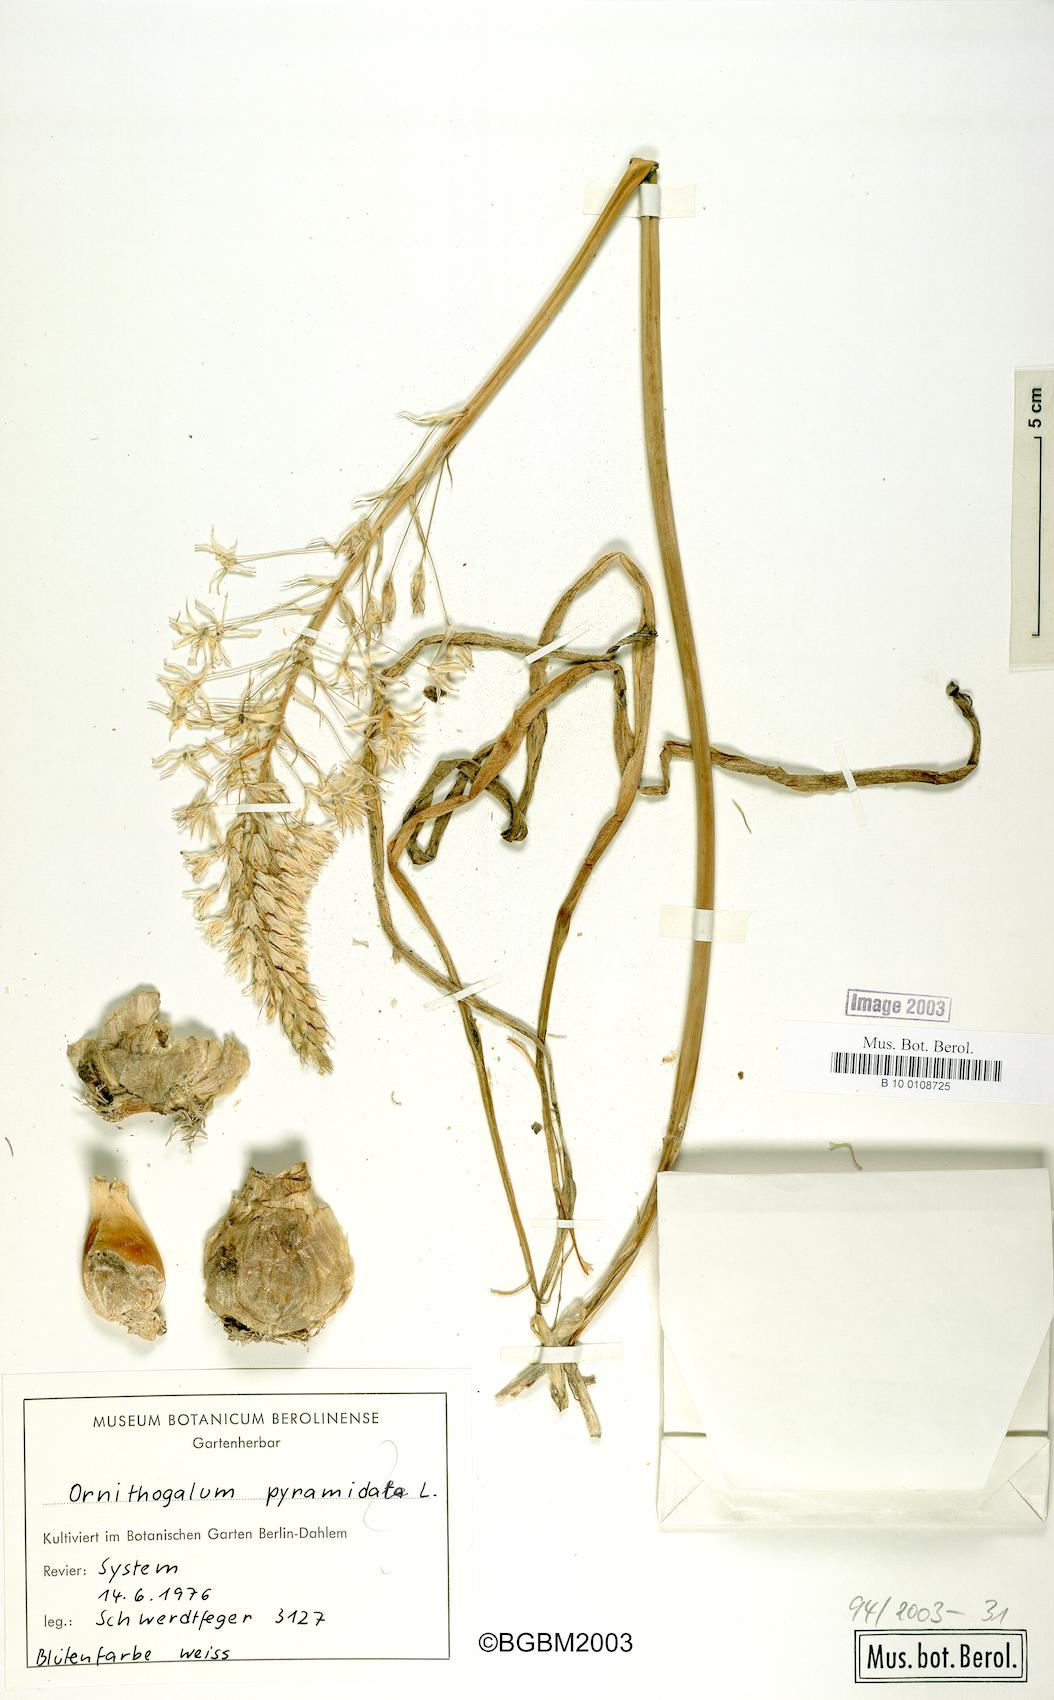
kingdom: Plantae
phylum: Tracheophyta
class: Liliopsida
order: Asparagales
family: Asparagaceae
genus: Ornithogalum
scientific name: Ornithogalum pyramidale
